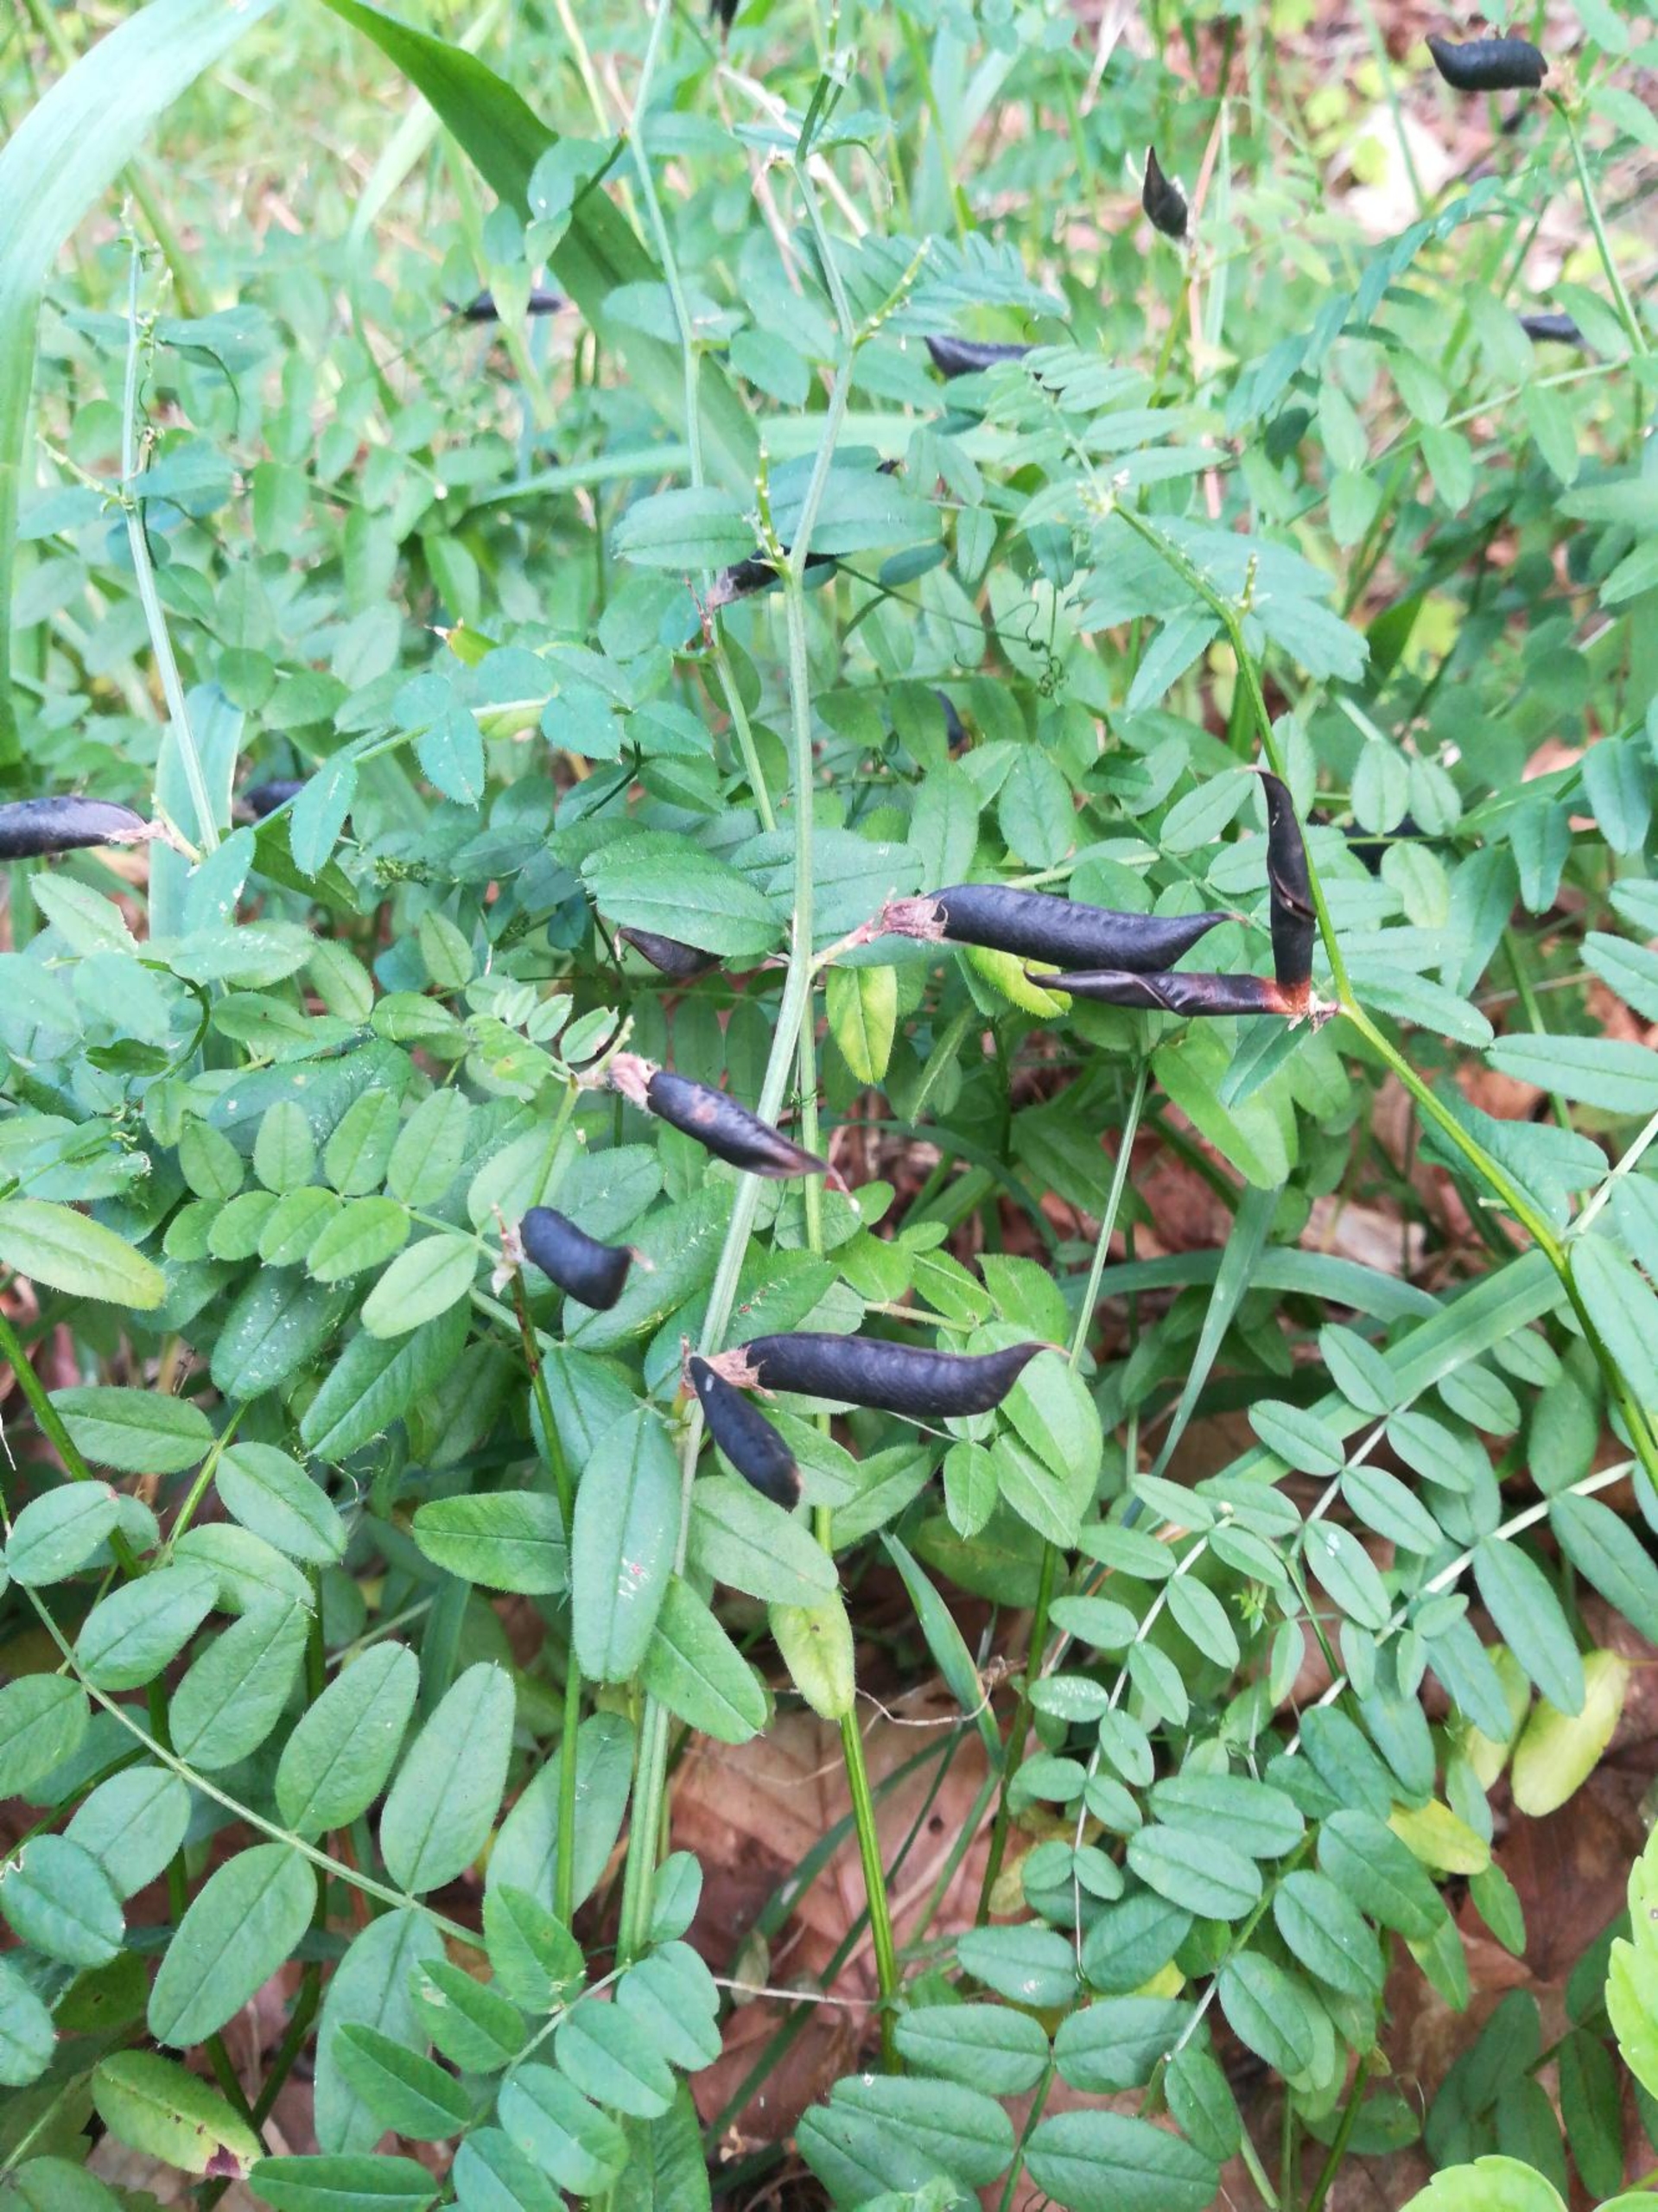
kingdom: Plantae
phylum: Tracheophyta
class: Magnoliopsida
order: Fabales
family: Fabaceae
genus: Vicia
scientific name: Vicia sepium
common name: Gærde-vikke
